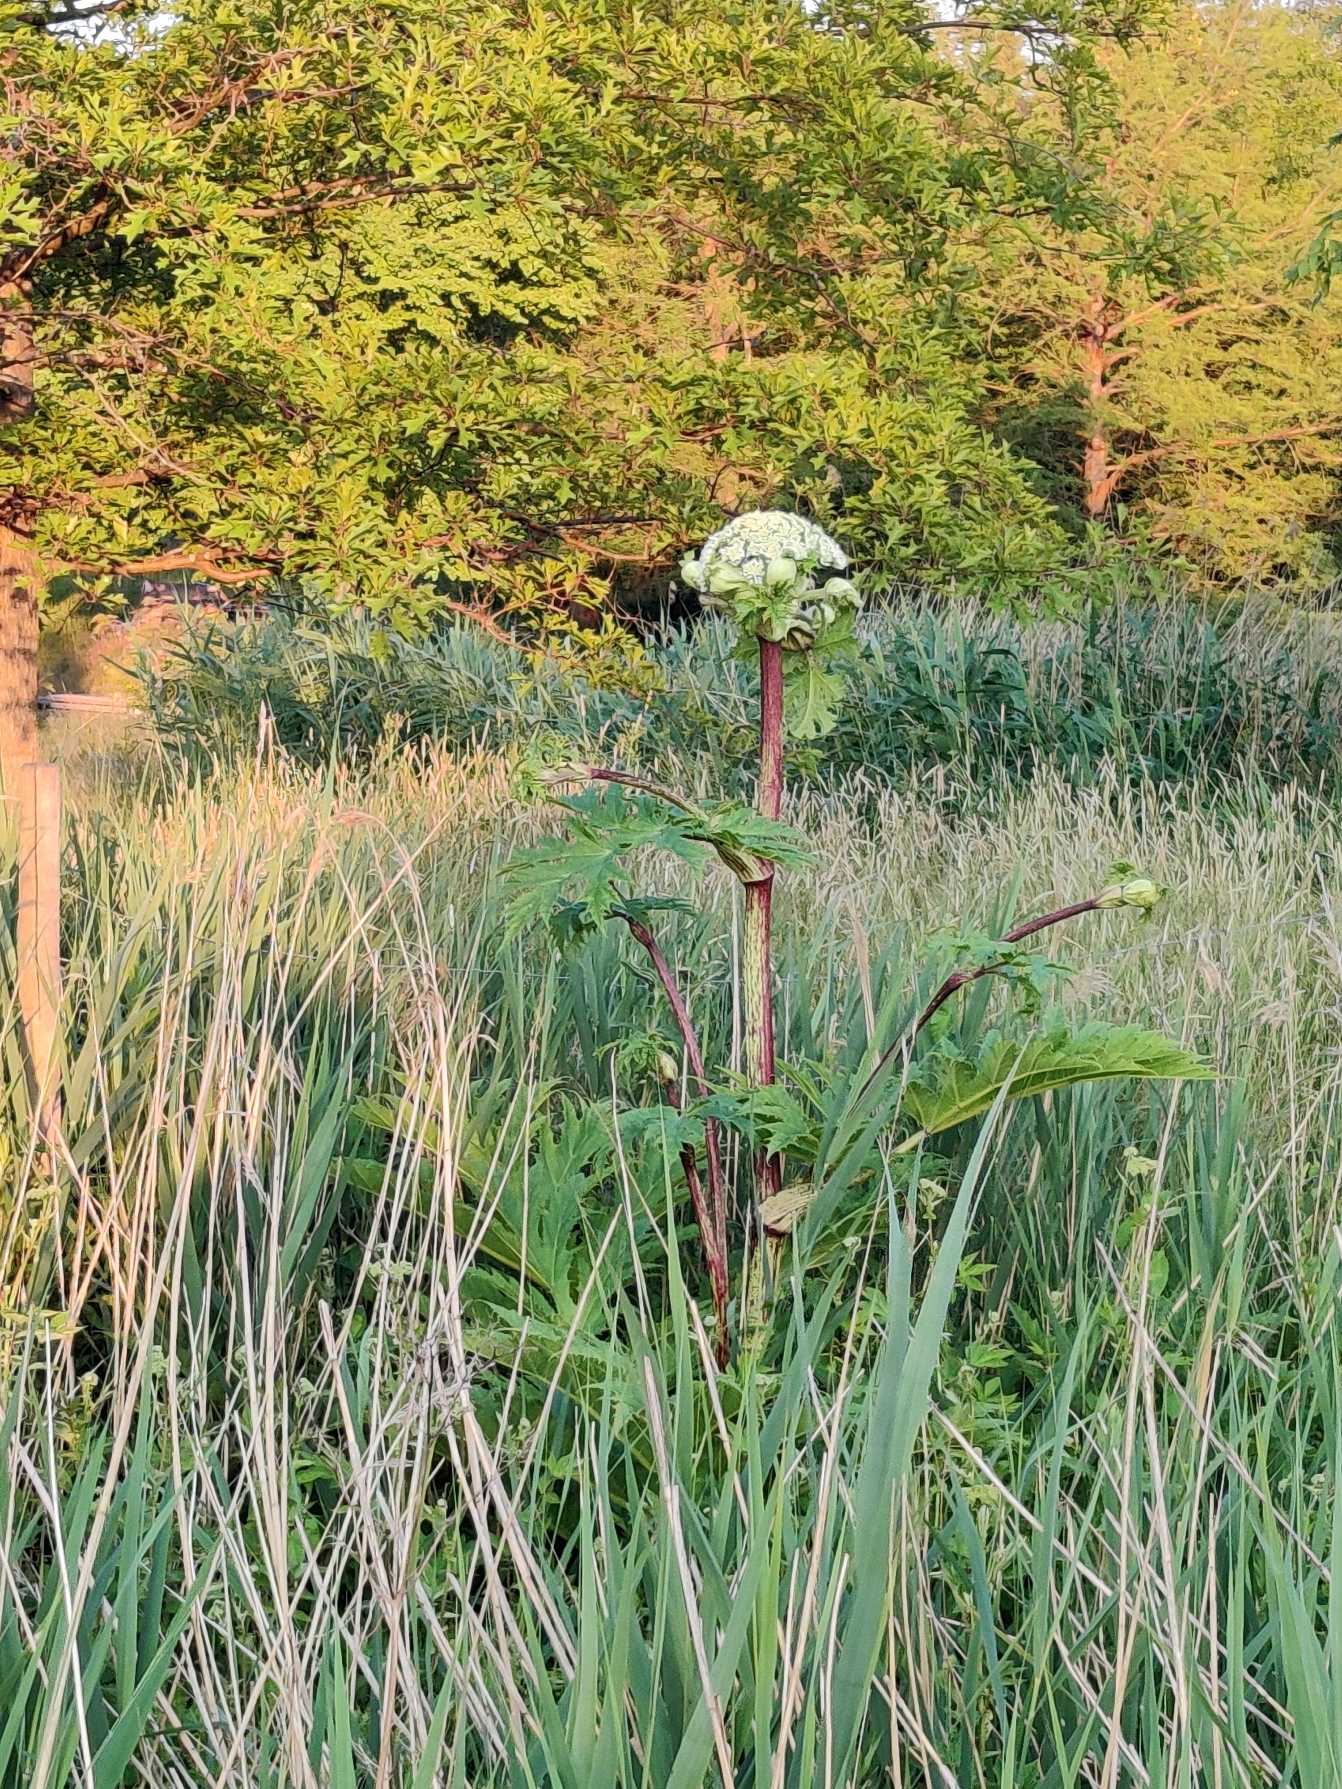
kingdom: Plantae
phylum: Tracheophyta
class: Magnoliopsida
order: Apiales
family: Apiaceae
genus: Heracleum
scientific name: Heracleum mantegazzianum
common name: Kæmpe-bjørneklo
